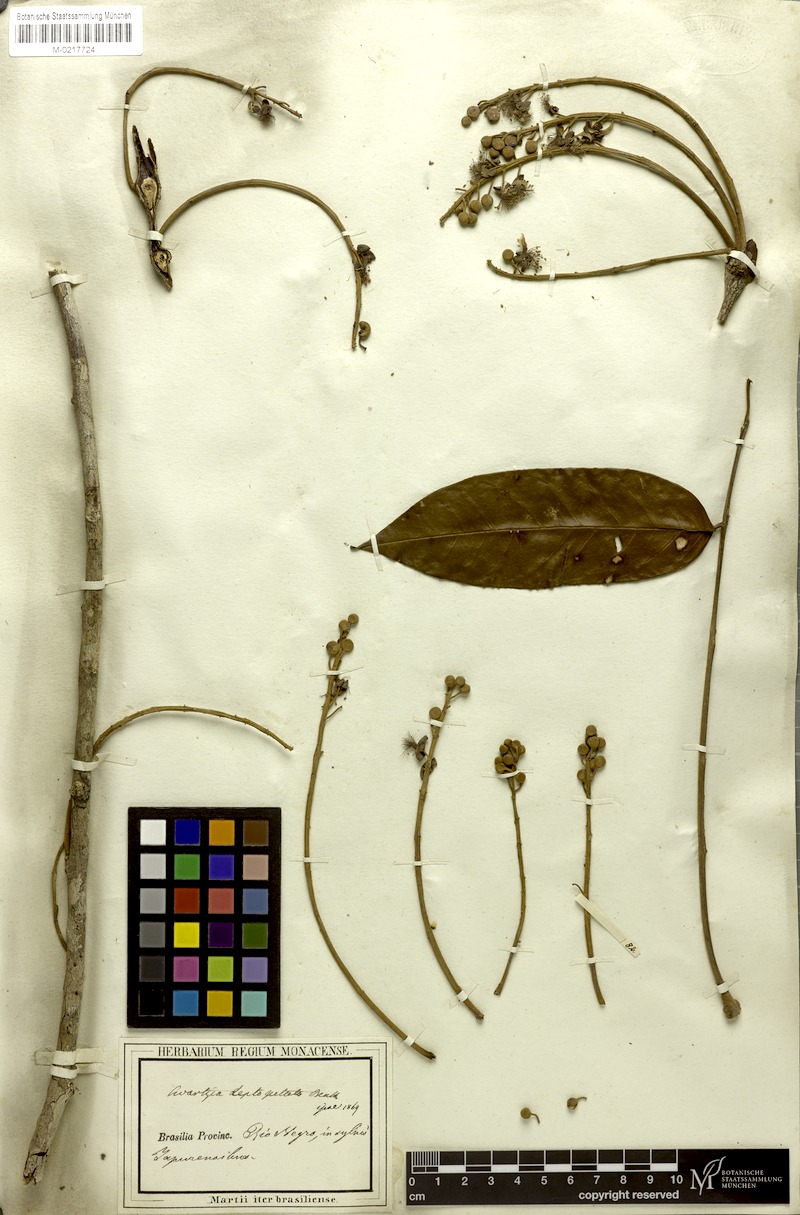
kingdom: Plantae
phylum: Tracheophyta
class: Magnoliopsida
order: Fabales
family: Fabaceae
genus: Swartzia
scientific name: Swartzia leptopetala
